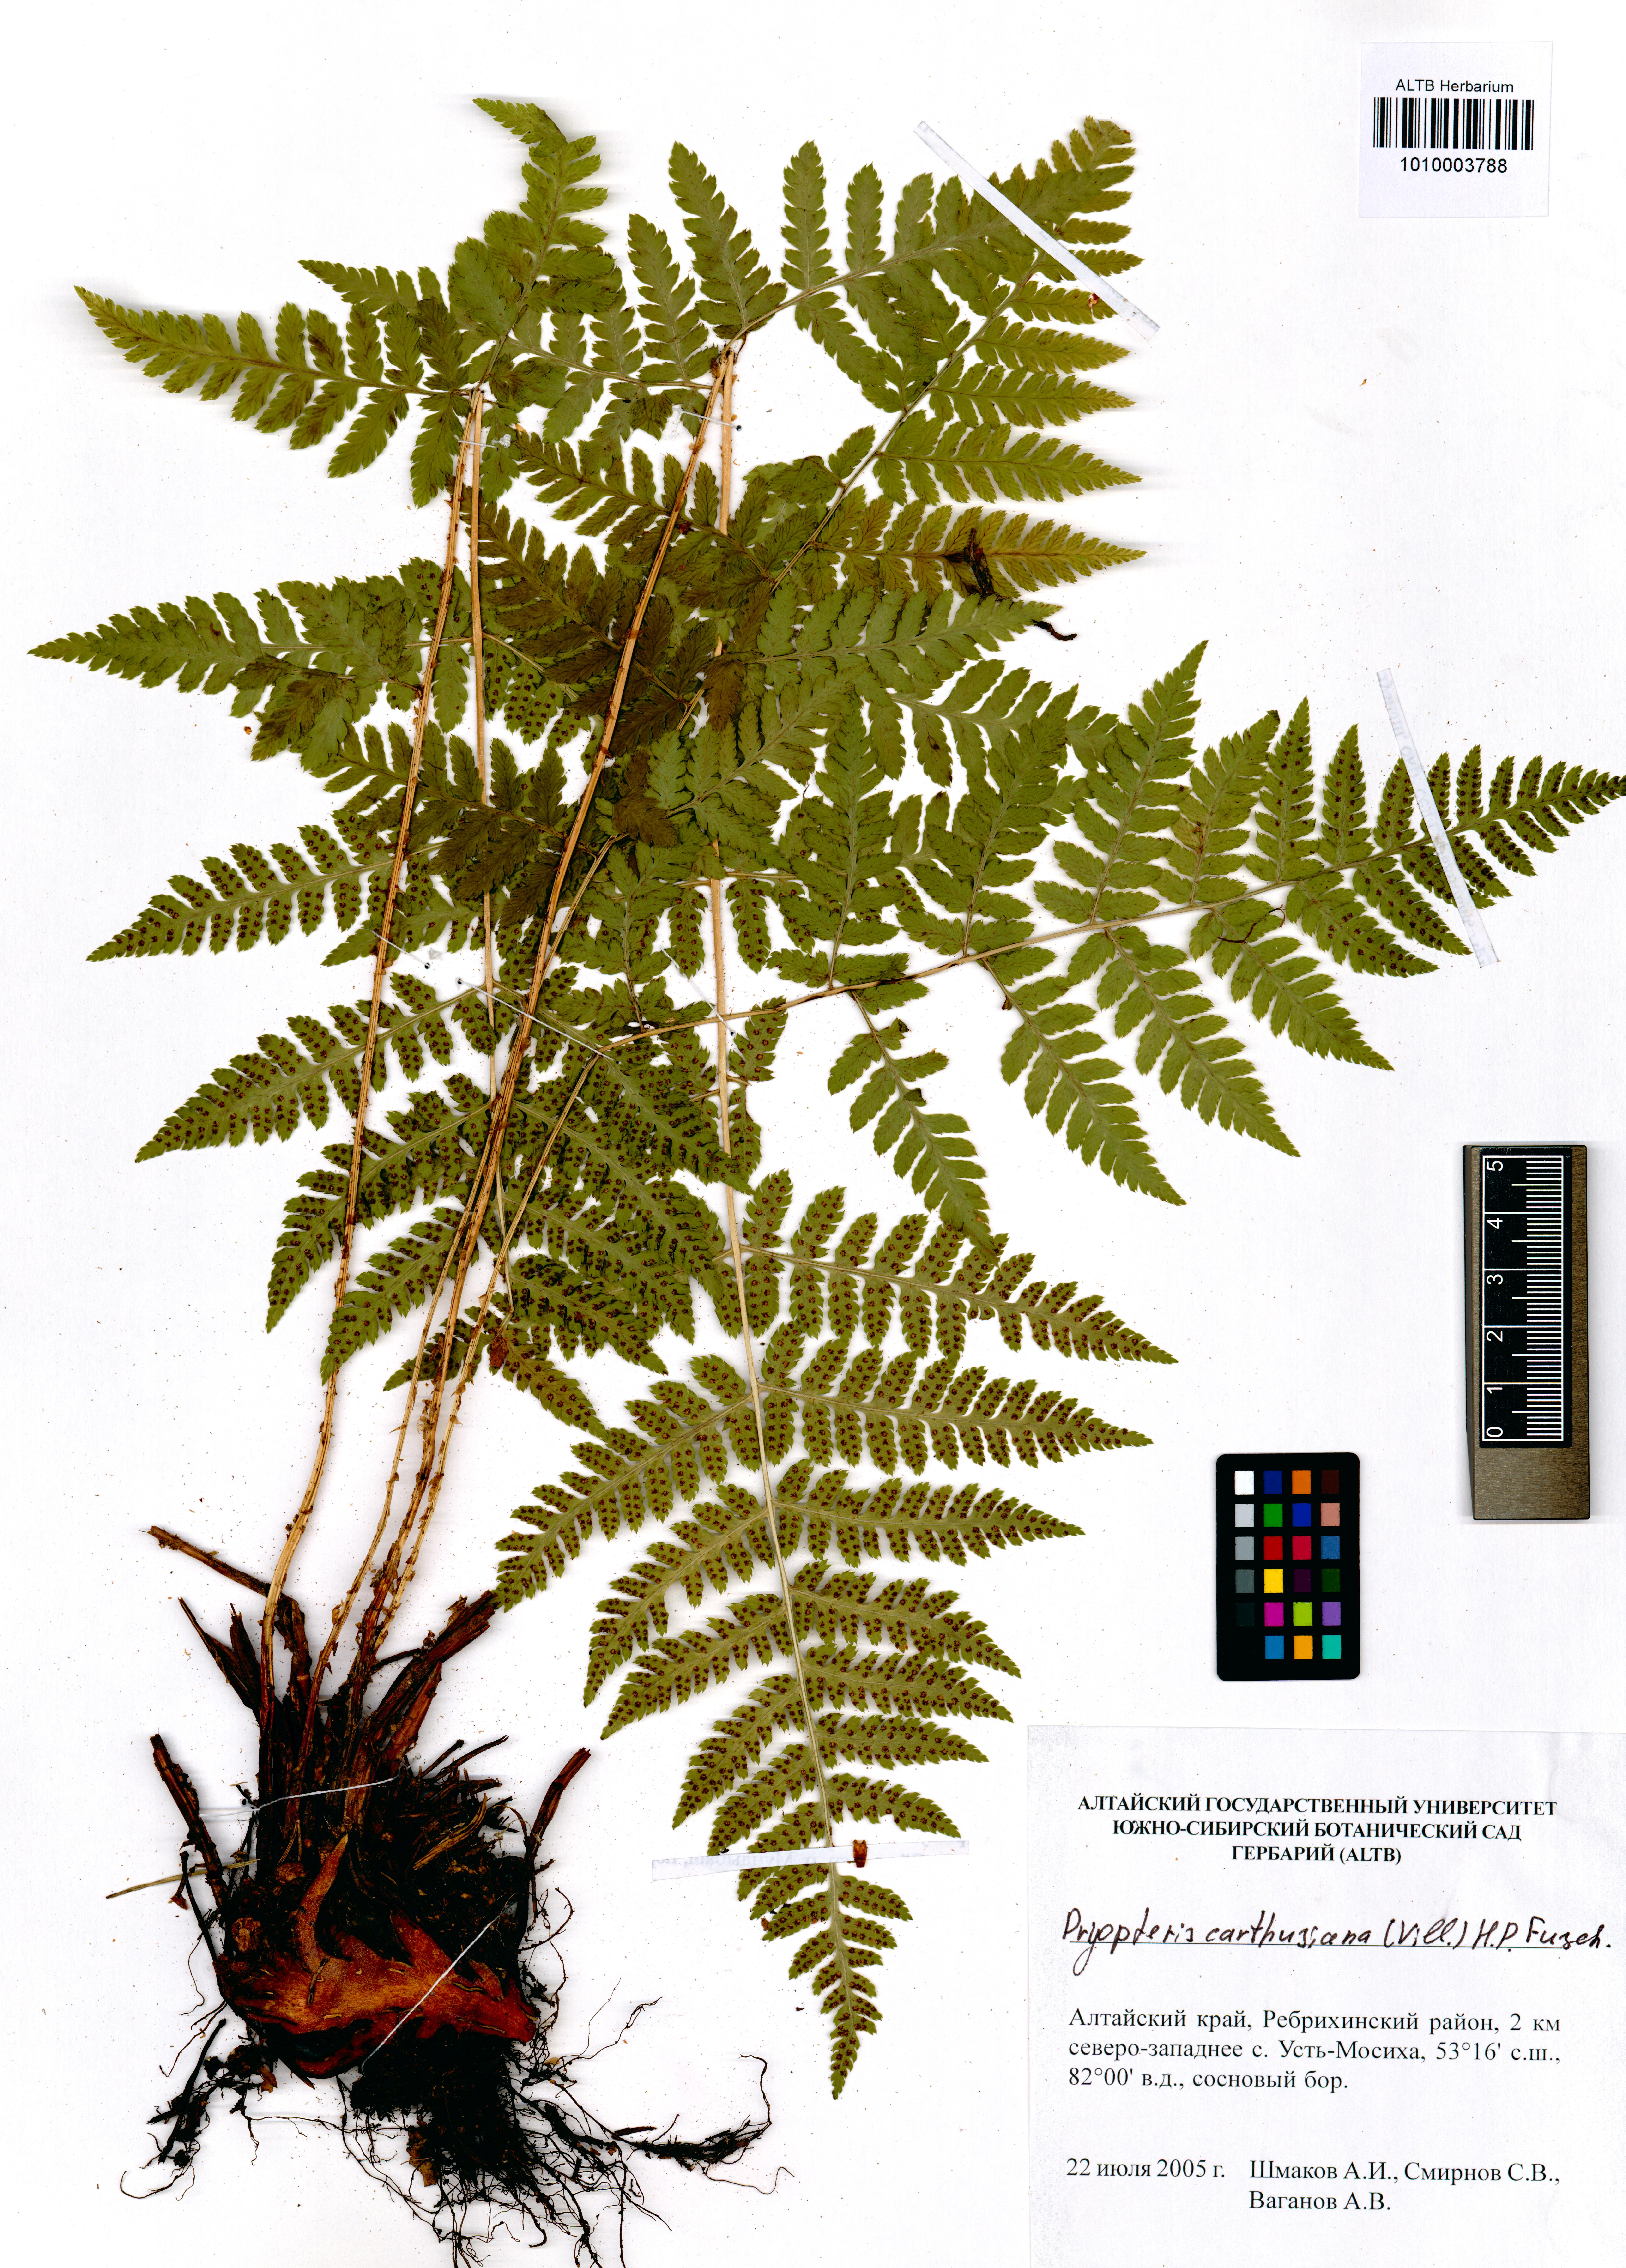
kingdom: Plantae
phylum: Tracheophyta
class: Polypodiopsida
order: Polypodiales
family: Dryopteridaceae
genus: Dryopteris
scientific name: Dryopteris carthusiana
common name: Narrow buckler-fern
